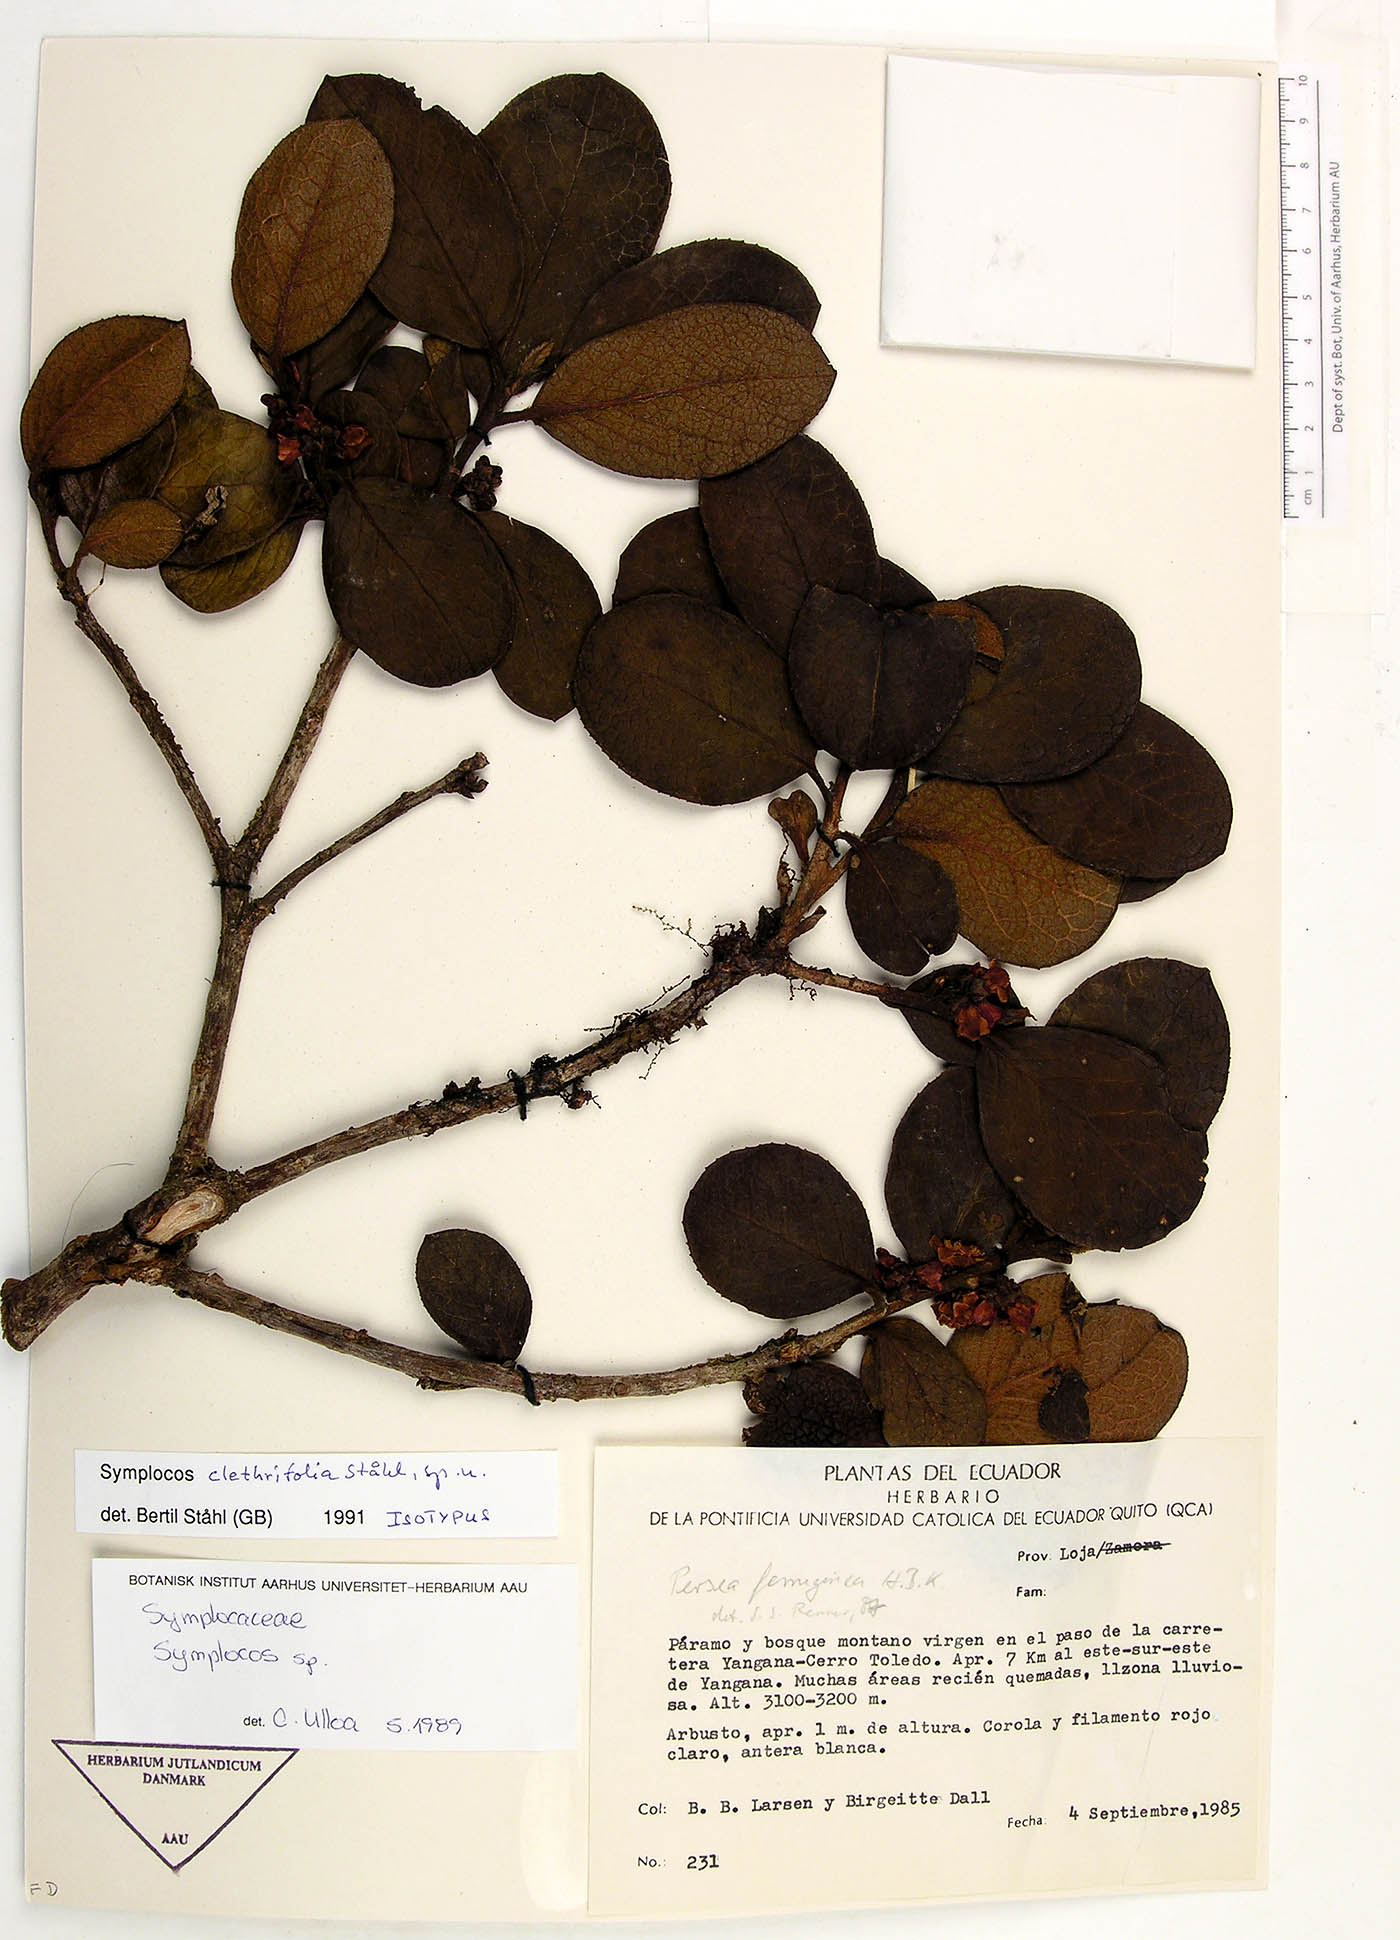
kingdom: Plantae
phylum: Tracheophyta
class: Magnoliopsida
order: Ericales
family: Symplocaceae
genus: Symplocos
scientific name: Symplocos clethrifolia
